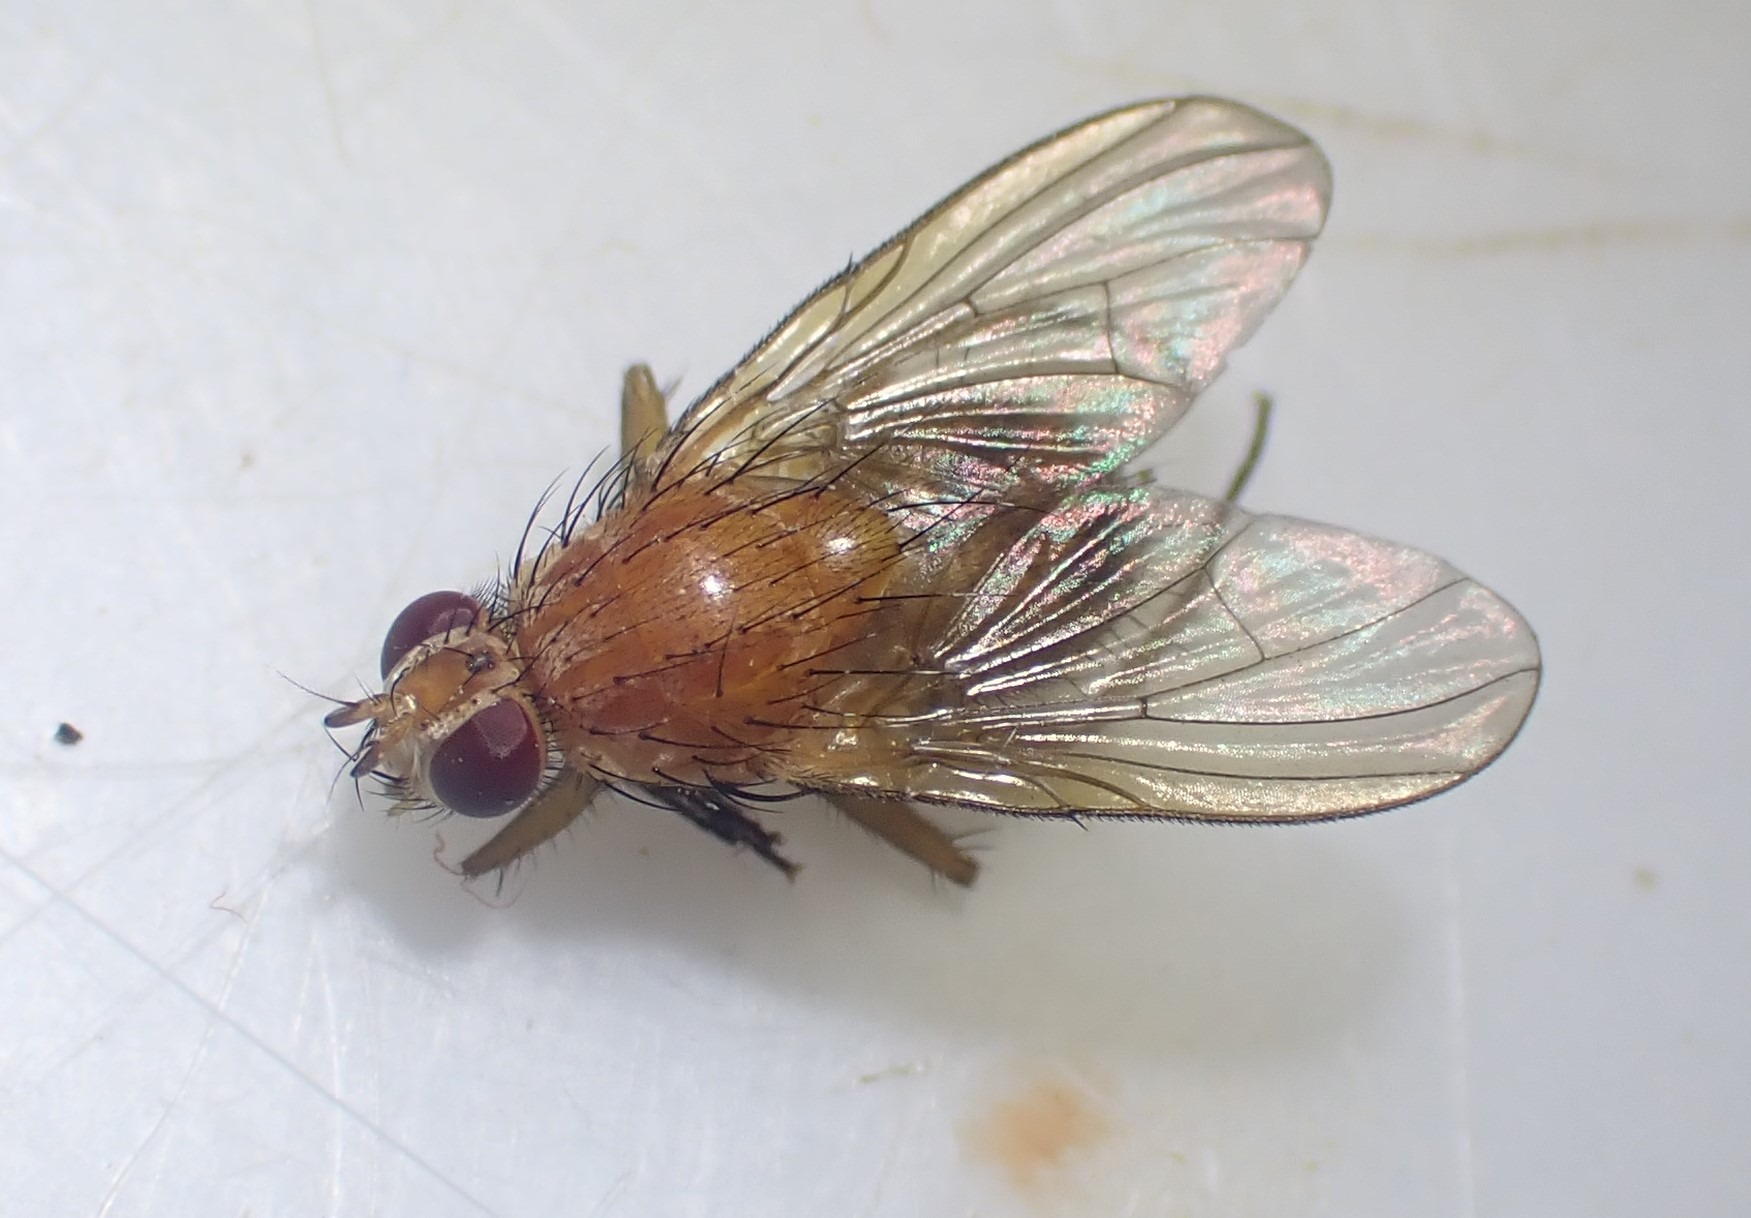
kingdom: Animalia
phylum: Arthropoda
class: Insecta
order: Diptera
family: Muscidae
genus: Phaonia
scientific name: Phaonia pallida
